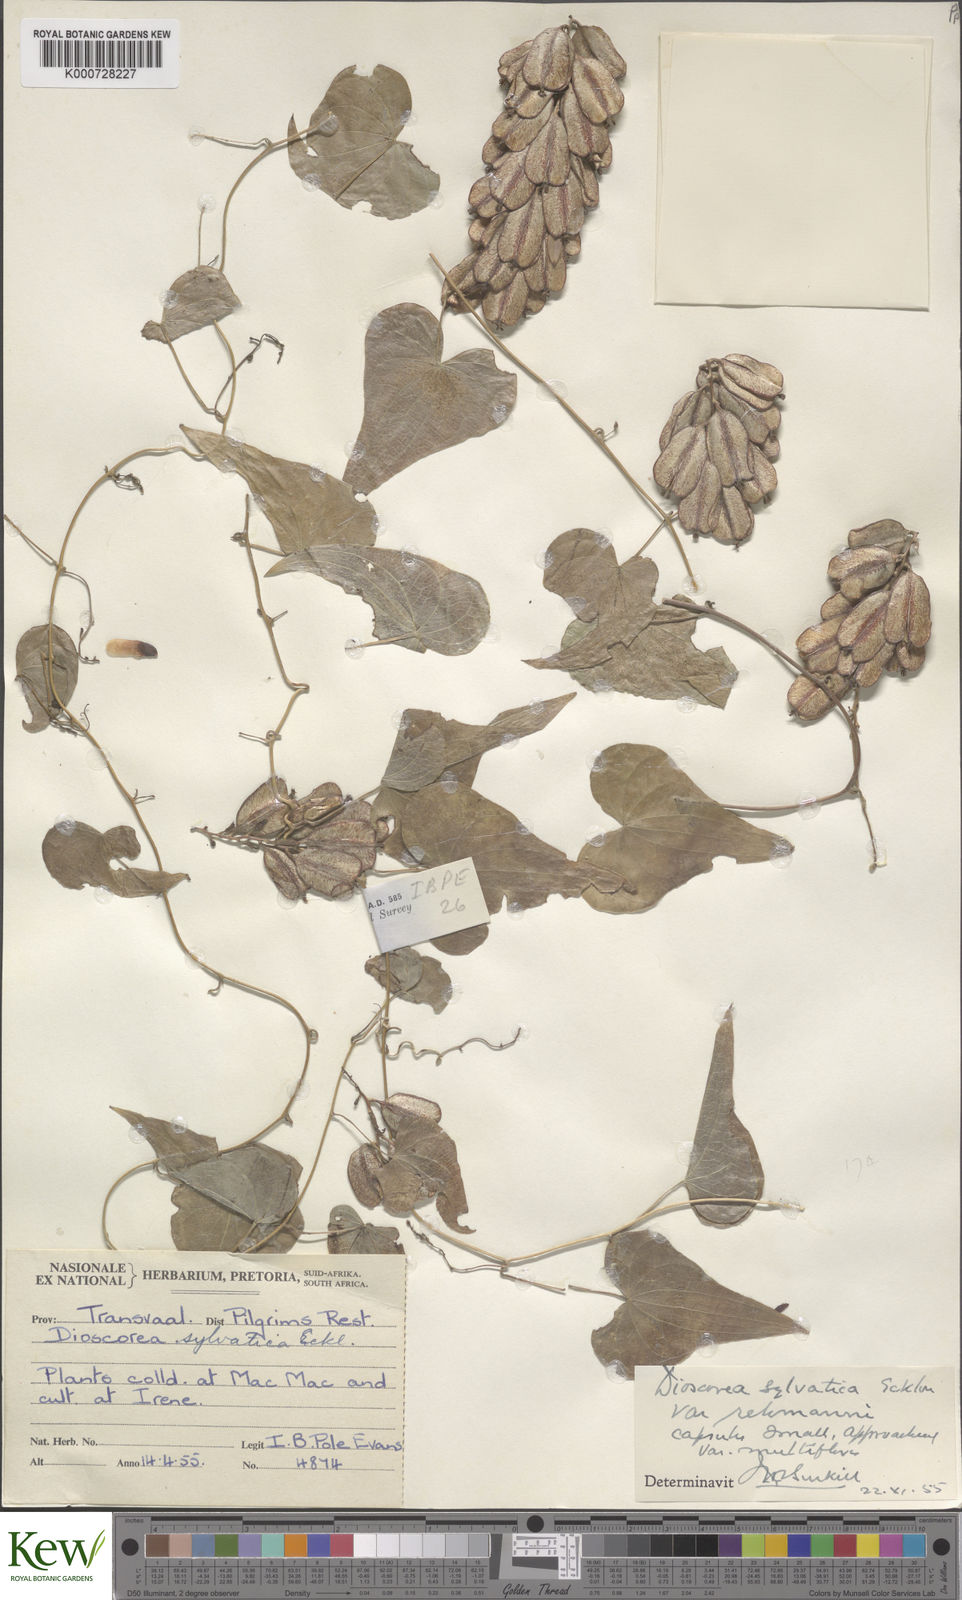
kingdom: Plantae
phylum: Tracheophyta
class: Liliopsida
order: Dioscoreales
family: Dioscoreaceae
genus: Dioscorea
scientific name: Dioscorea sylvatica
